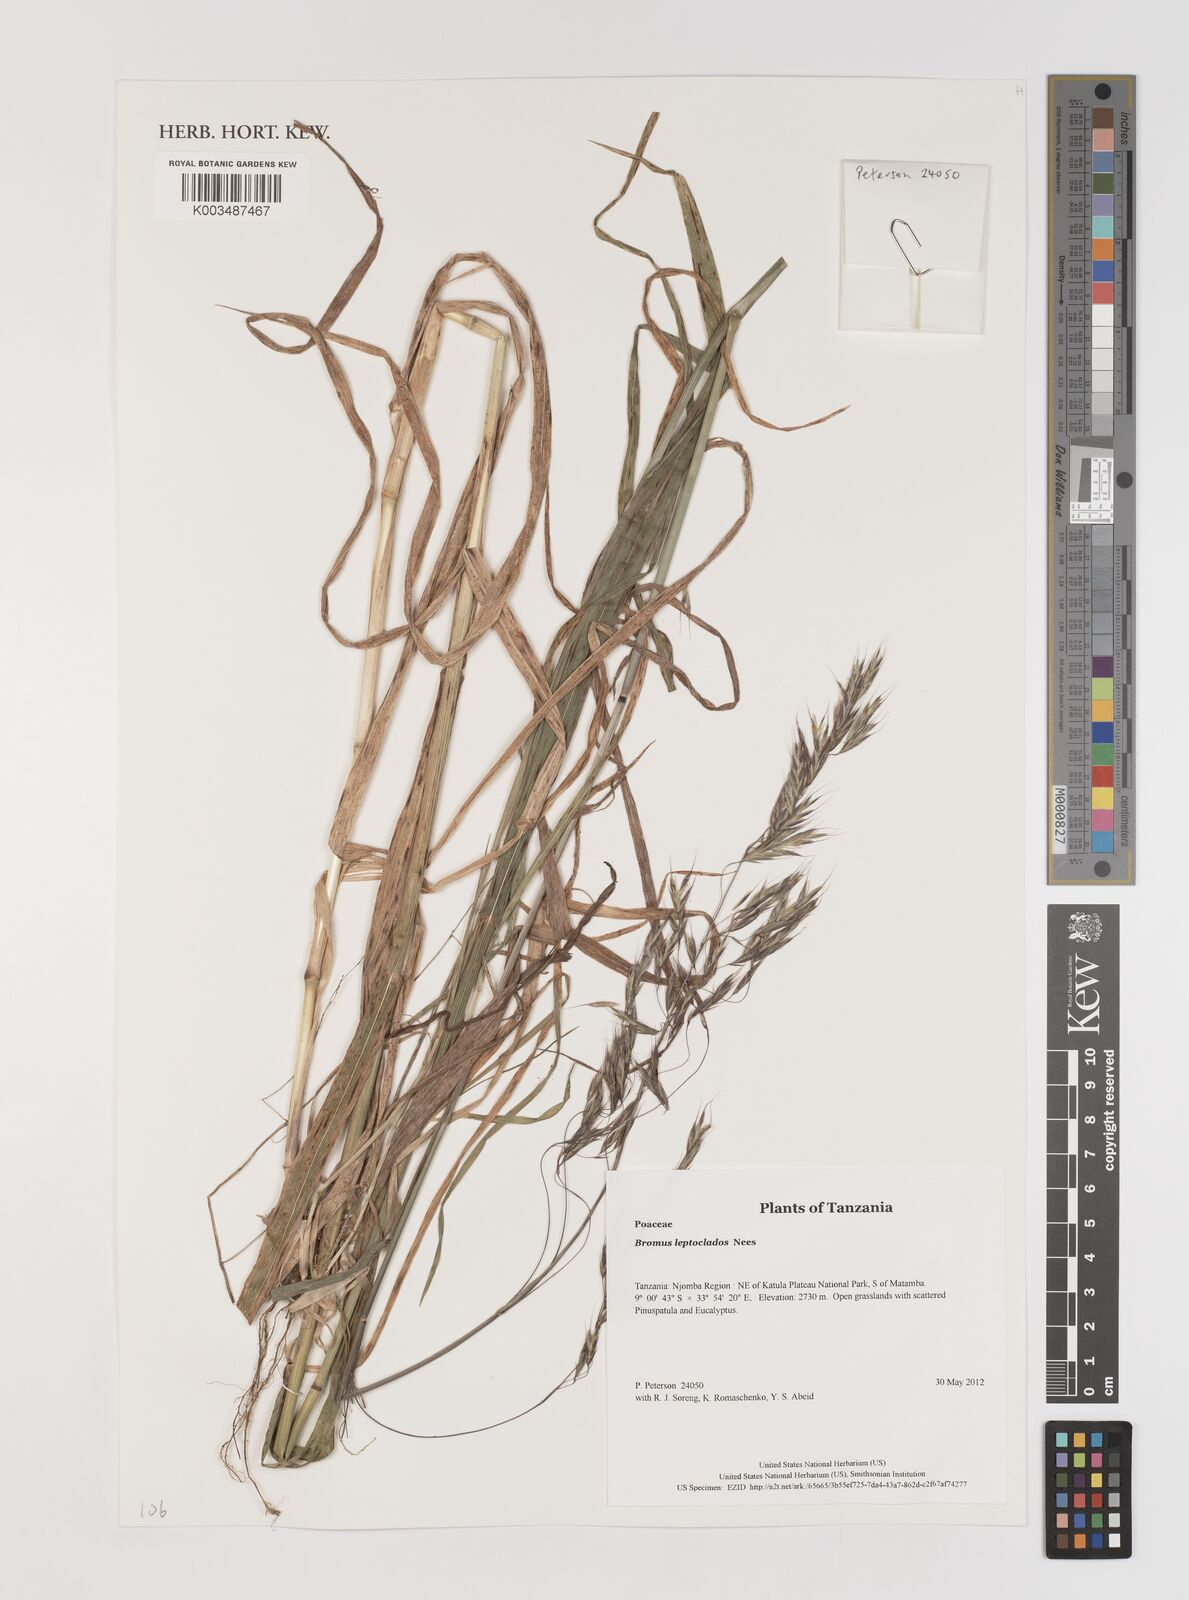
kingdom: Plantae
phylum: Tracheophyta
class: Liliopsida
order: Poales
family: Poaceae
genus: Bromus
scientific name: Bromus leptoclados
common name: Mountain bromegrass
